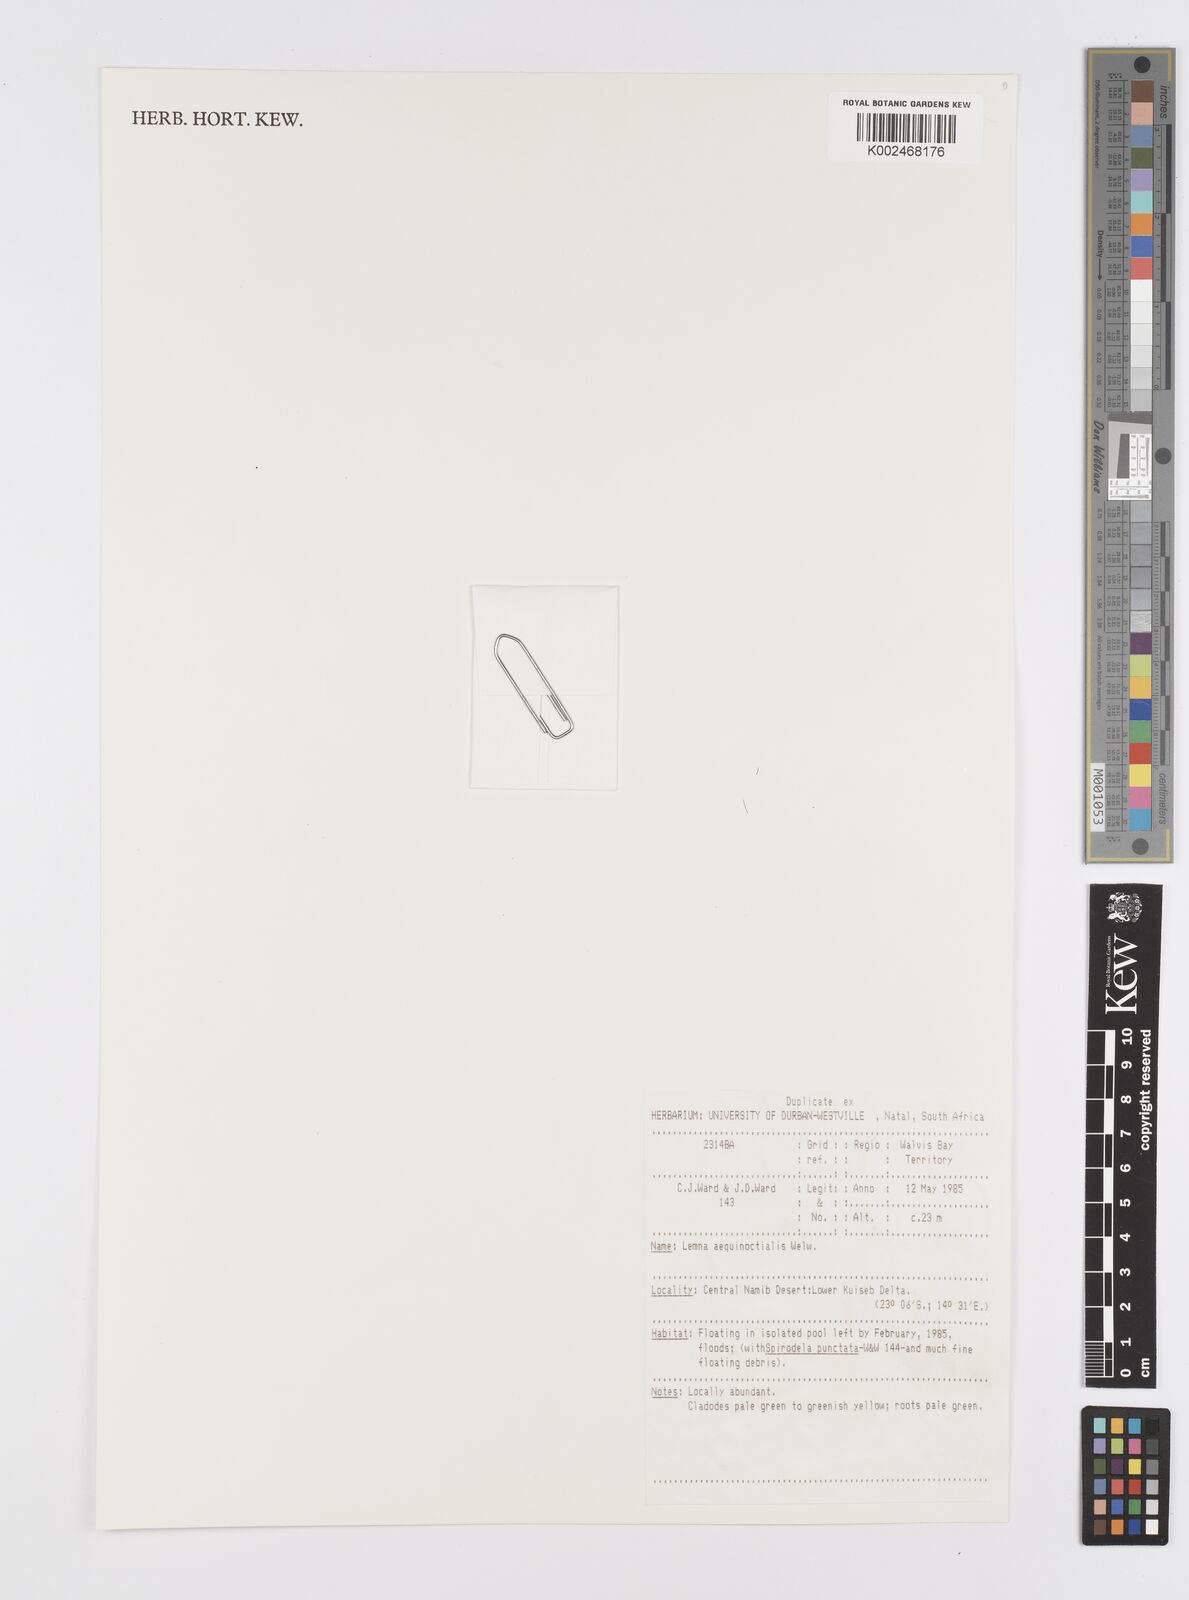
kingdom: Plantae
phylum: Tracheophyta
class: Liliopsida
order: Alismatales
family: Araceae
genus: Lemna
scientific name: Lemna aequinoctialis
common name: Duckweed
